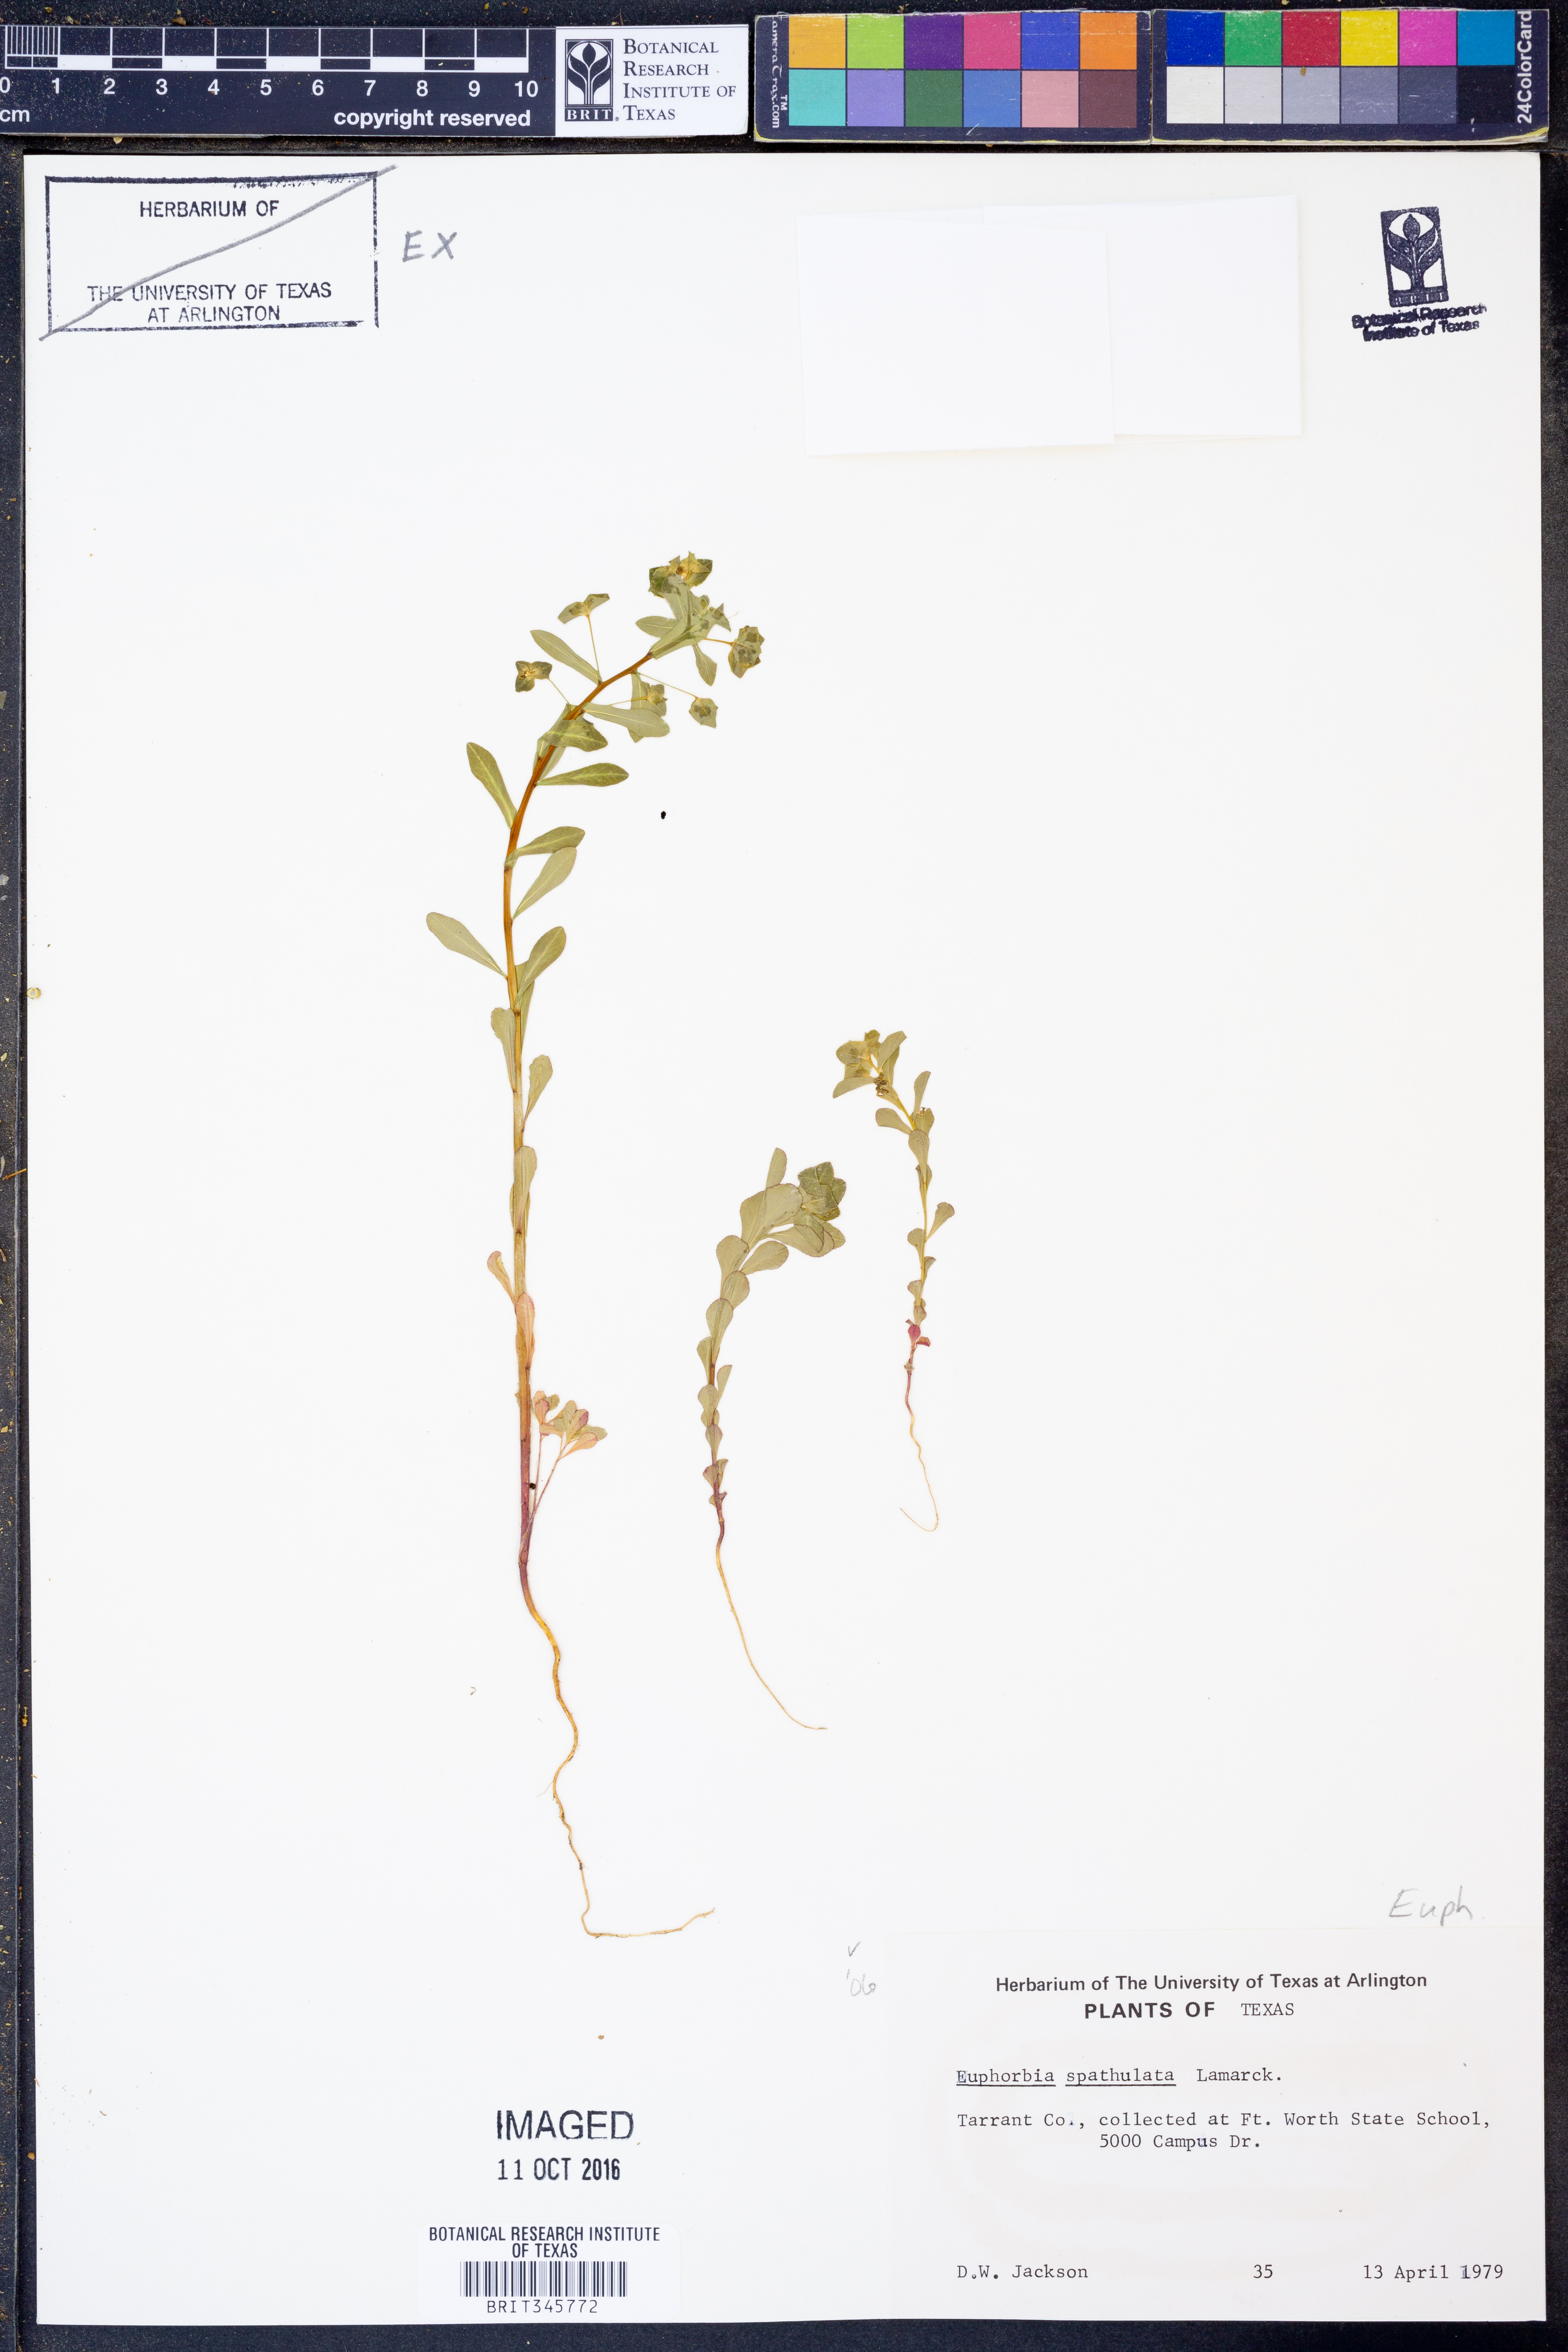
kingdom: Plantae
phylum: Tracheophyta
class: Magnoliopsida
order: Malpighiales
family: Euphorbiaceae
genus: Euphorbia
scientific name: Euphorbia spathulata
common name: Blunt spurge
